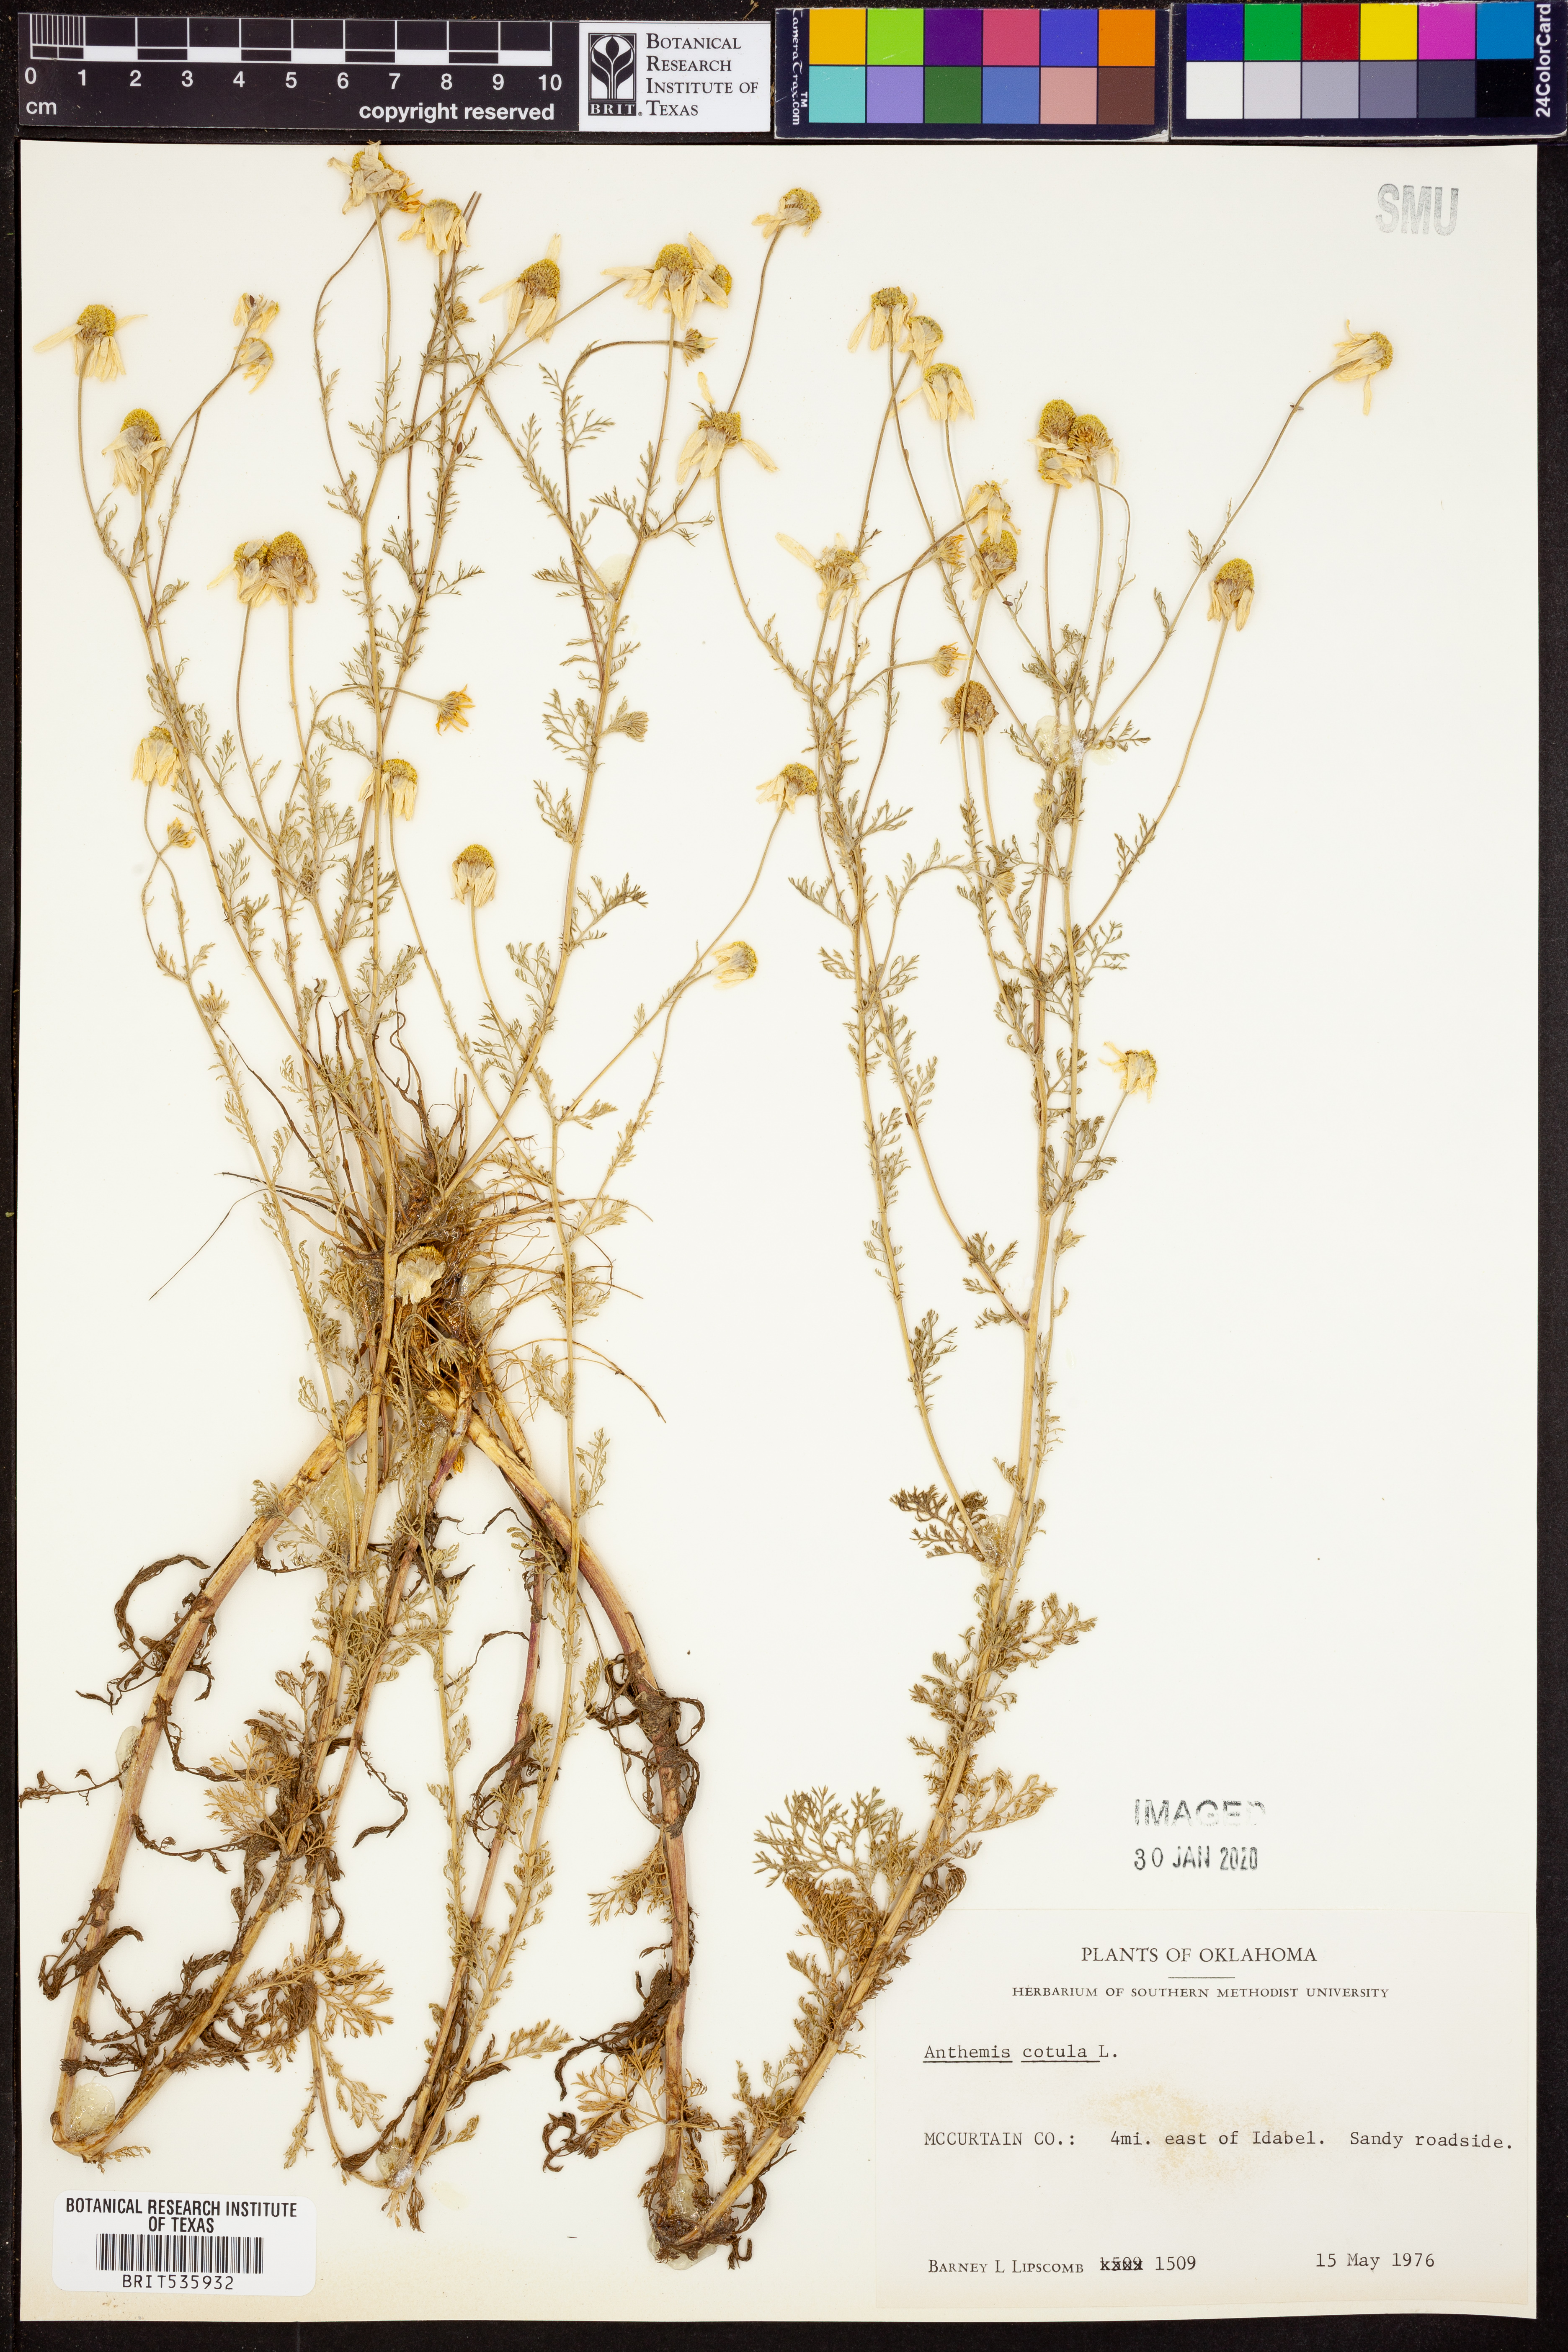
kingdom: Plantae
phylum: Tracheophyta
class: Magnoliopsida
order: Asterales
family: Asteraceae
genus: Anthemis
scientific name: Anthemis cotula
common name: Stinking chamomile
